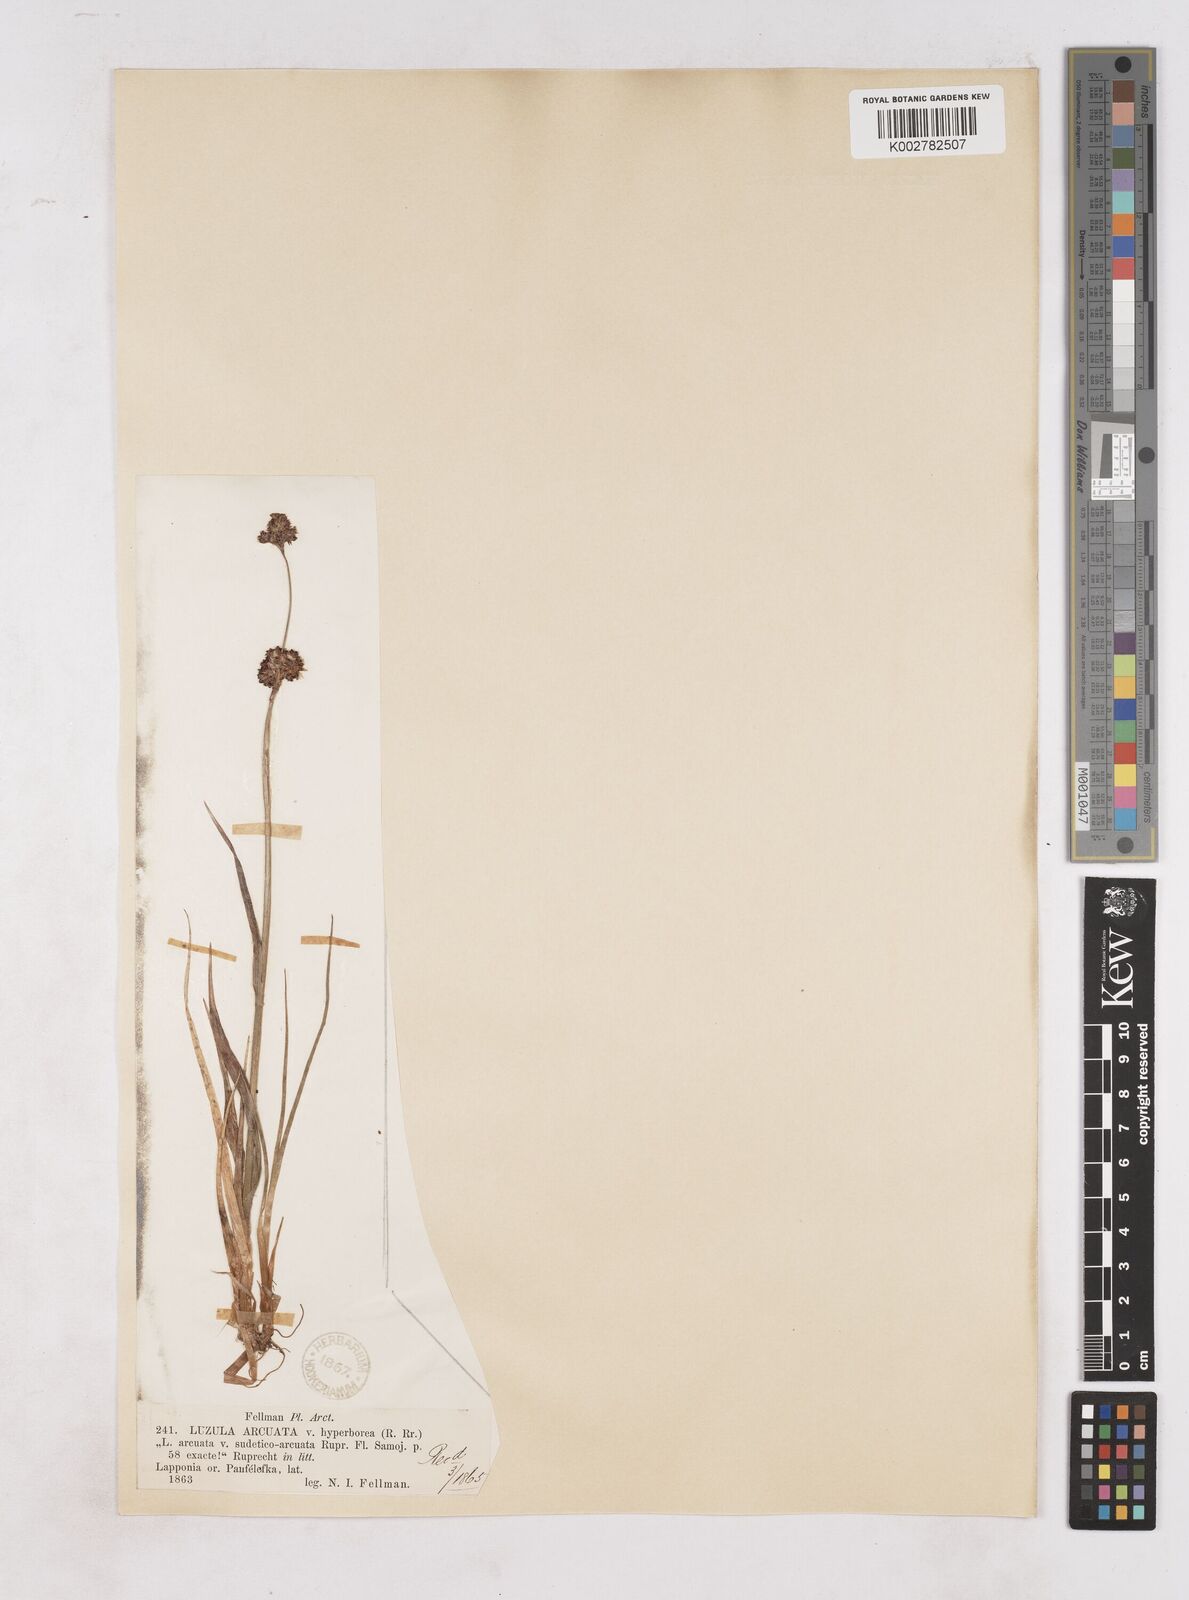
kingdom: Plantae
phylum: Tracheophyta
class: Liliopsida
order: Poales
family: Juncaceae
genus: Luzula
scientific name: Luzula arcuata
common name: Curved wood-rush
